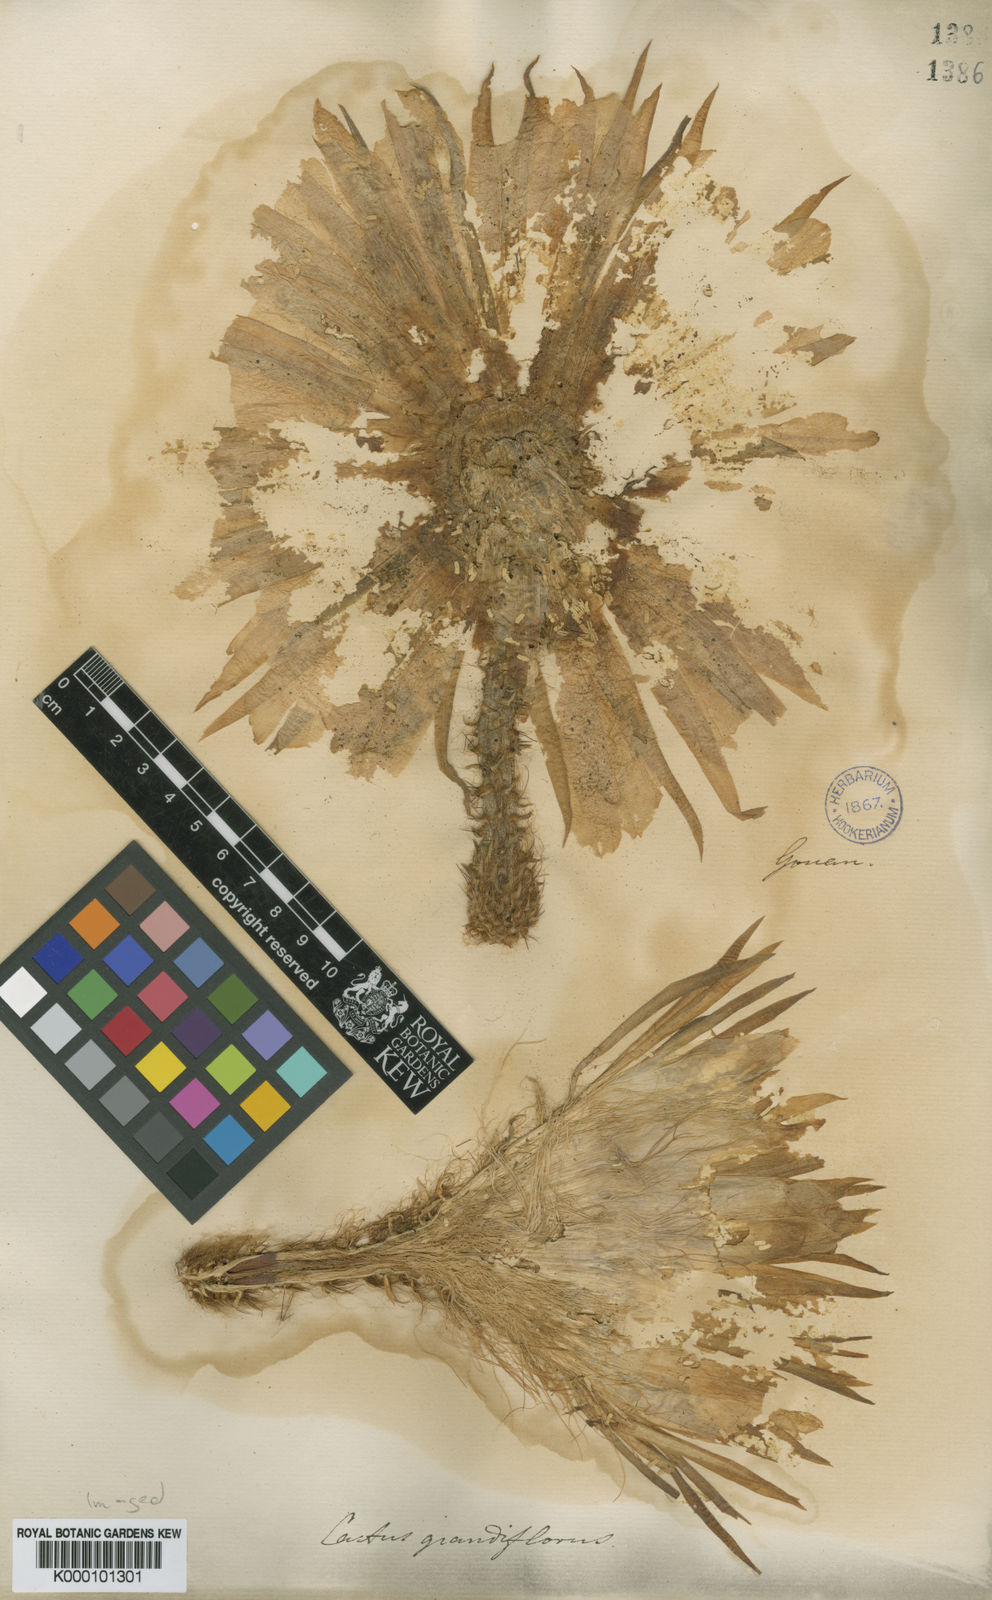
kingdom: Plantae
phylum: Tracheophyta
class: Magnoliopsida
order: Caryophyllales
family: Cactaceae
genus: Selenicereus
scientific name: Selenicereus grandiflorus
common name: Queen of the night
